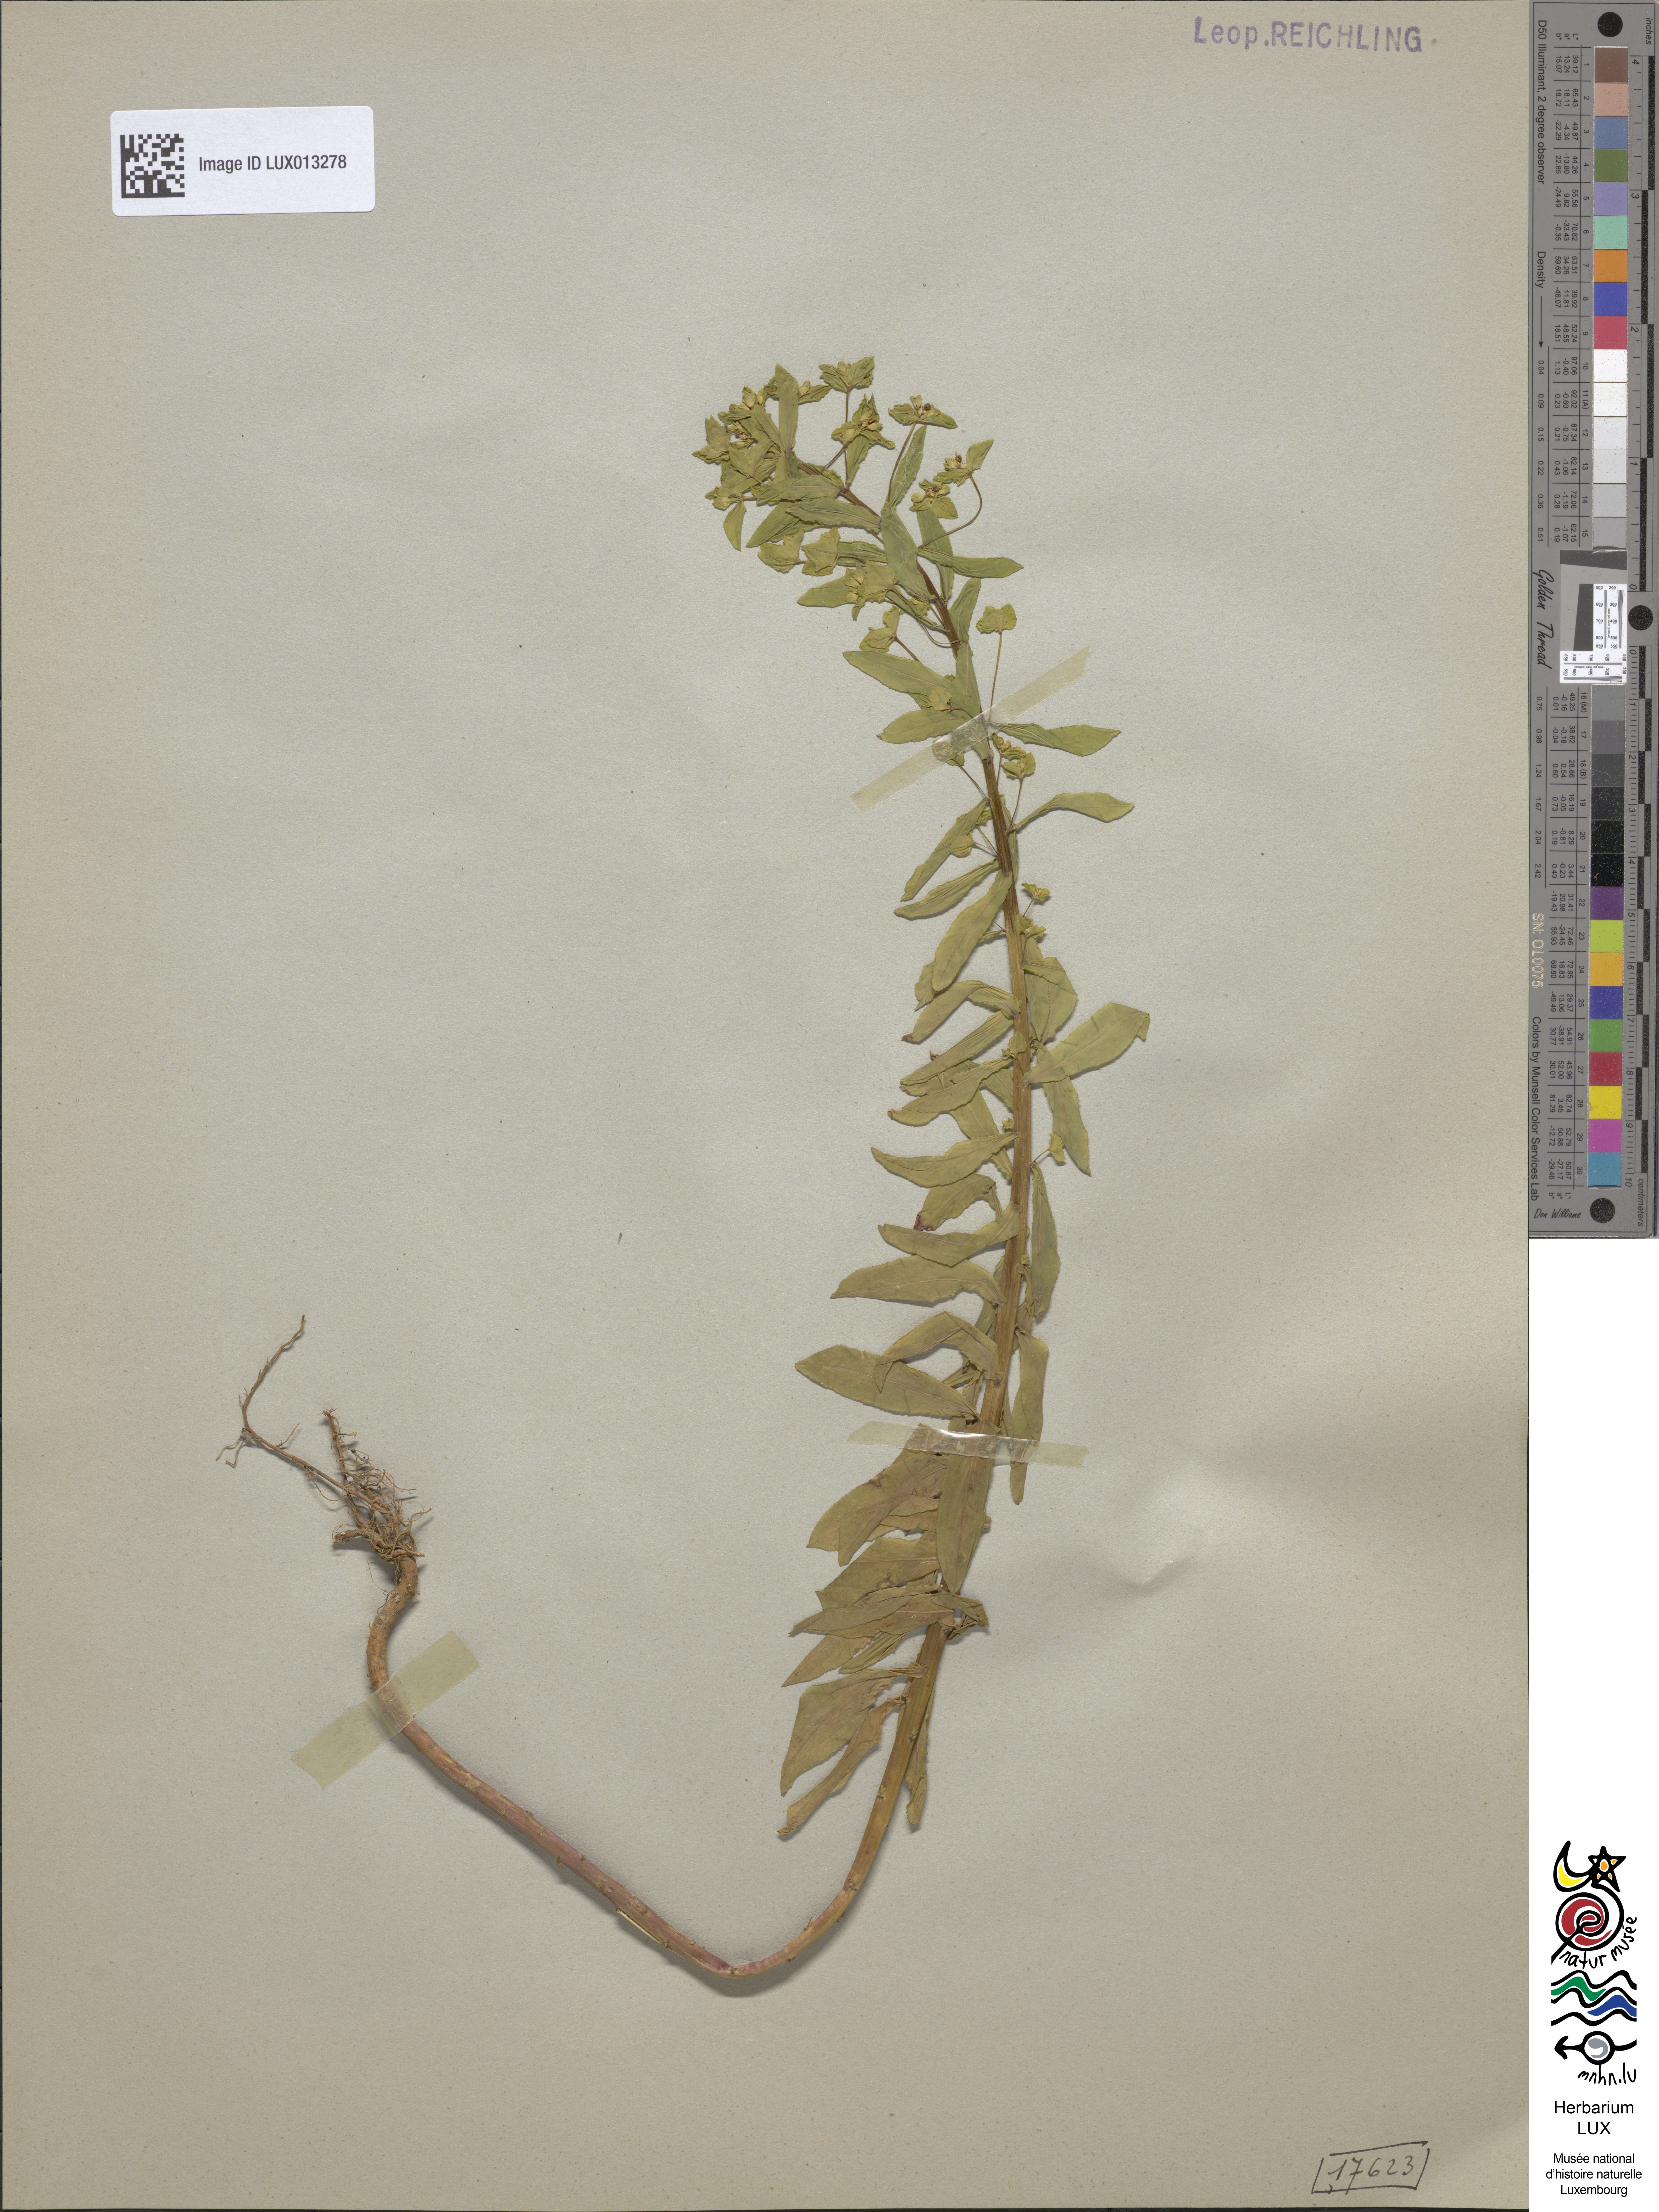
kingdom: Plantae
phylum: Tracheophyta
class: Magnoliopsida
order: Malpighiales
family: Euphorbiaceae
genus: Euphorbia
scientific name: Euphorbia stricta
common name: Upright spurge
